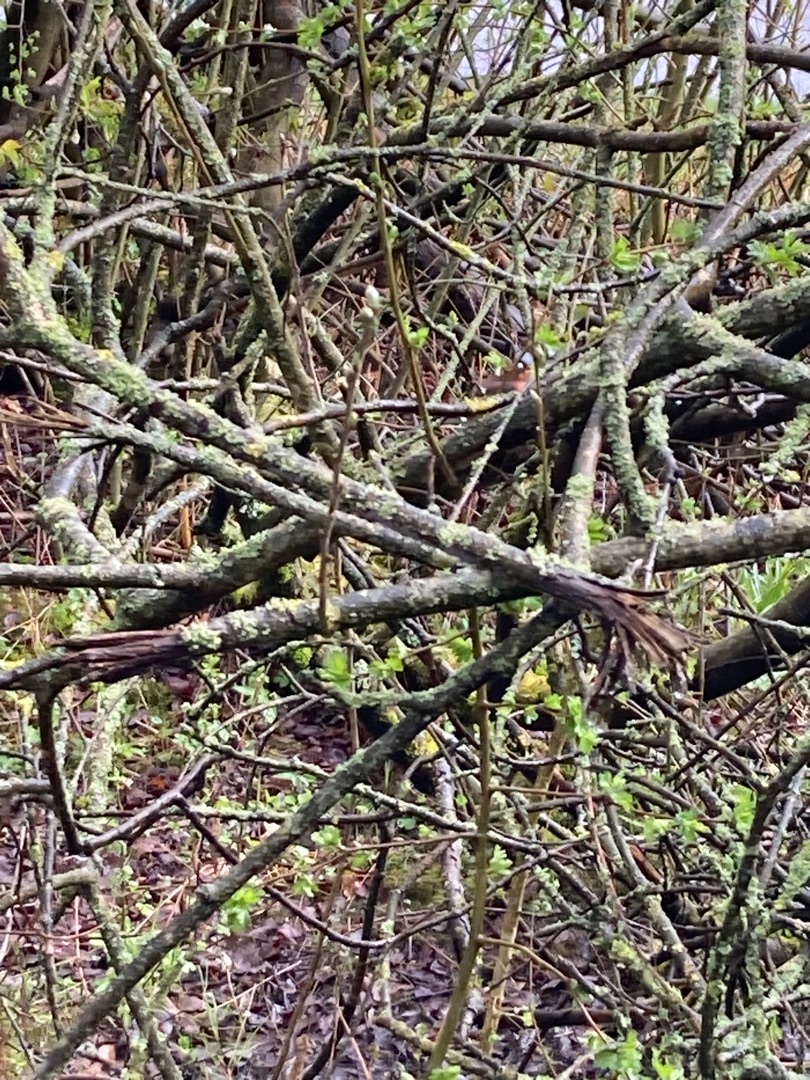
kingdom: Animalia
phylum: Chordata
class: Aves
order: Passeriformes
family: Fringillidae
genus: Fringilla
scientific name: Fringilla coelebs
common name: Bogfinke
